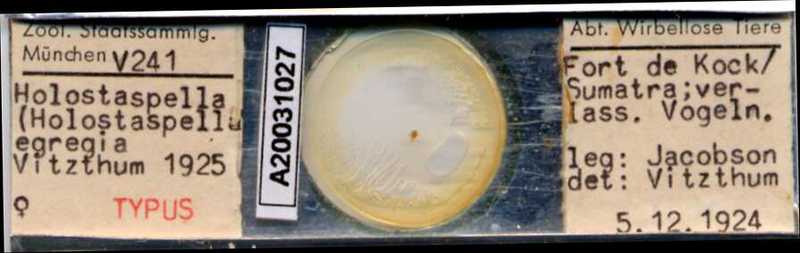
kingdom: Animalia
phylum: Arthropoda
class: Arachnida
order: Mesostigmata
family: Macrochelidae
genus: Holostaspella
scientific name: Holostaspella moderata
